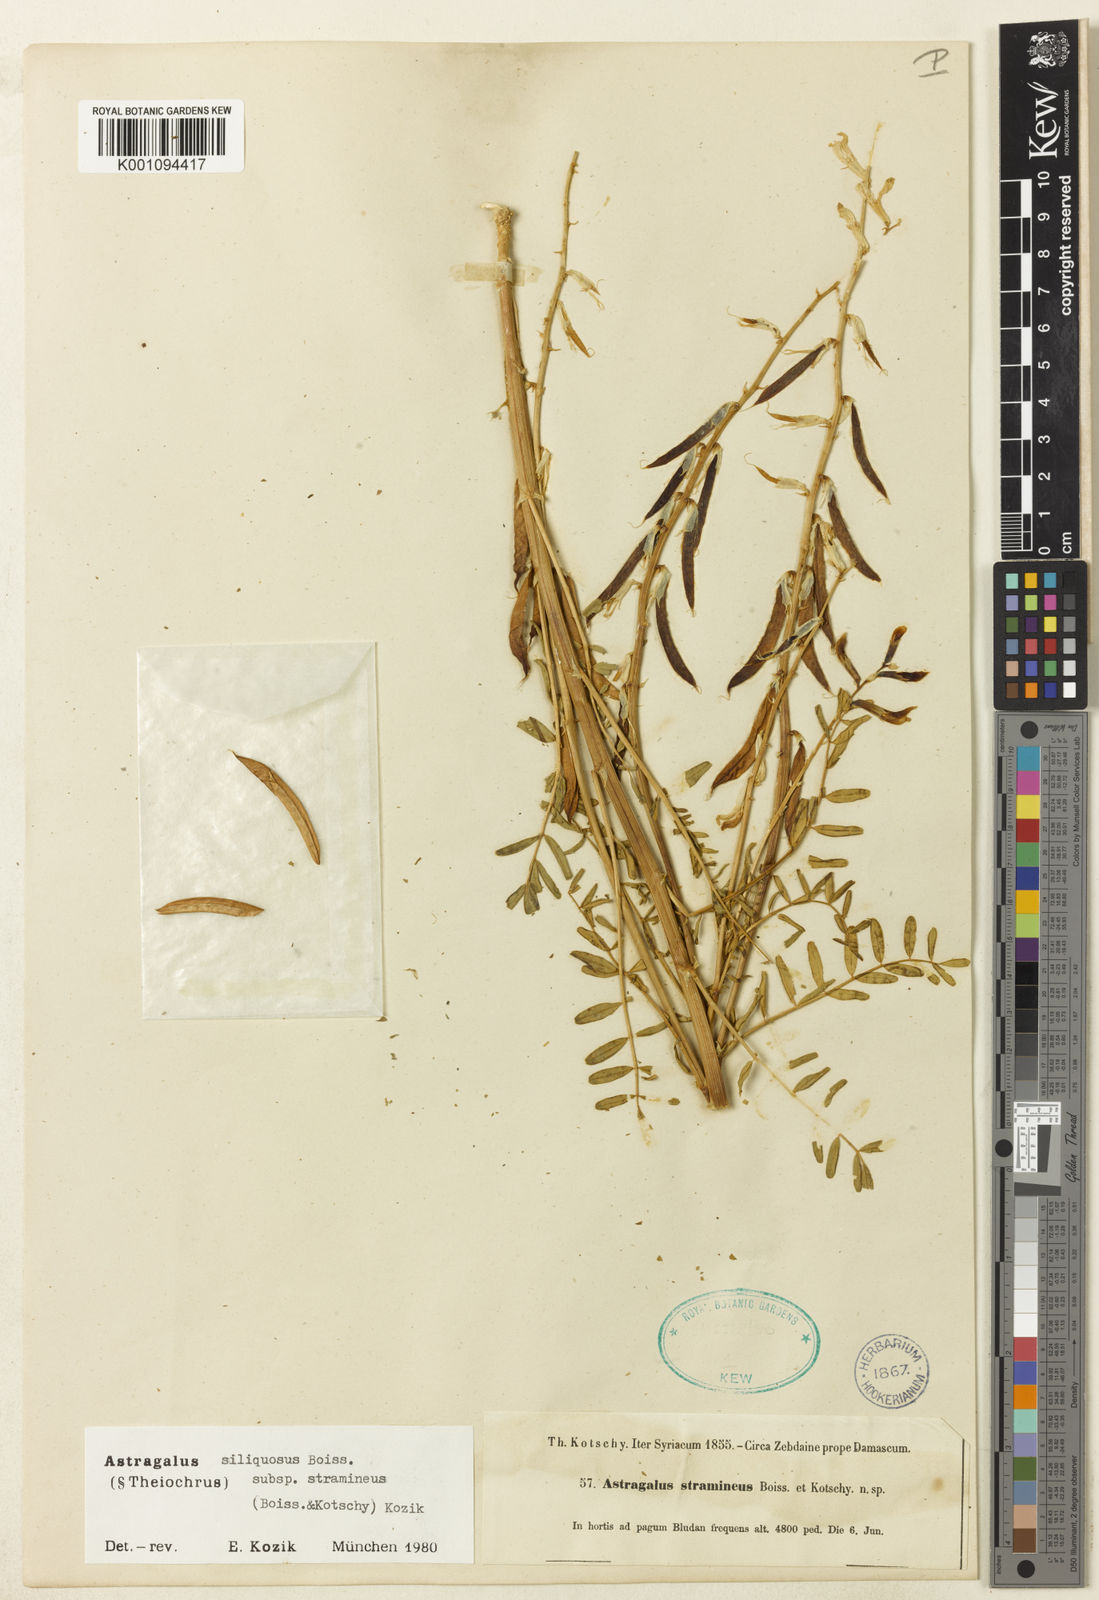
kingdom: Plantae
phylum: Tracheophyta
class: Magnoliopsida
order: Fabales
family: Fabaceae
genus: Astragalus
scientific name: Astragalus
